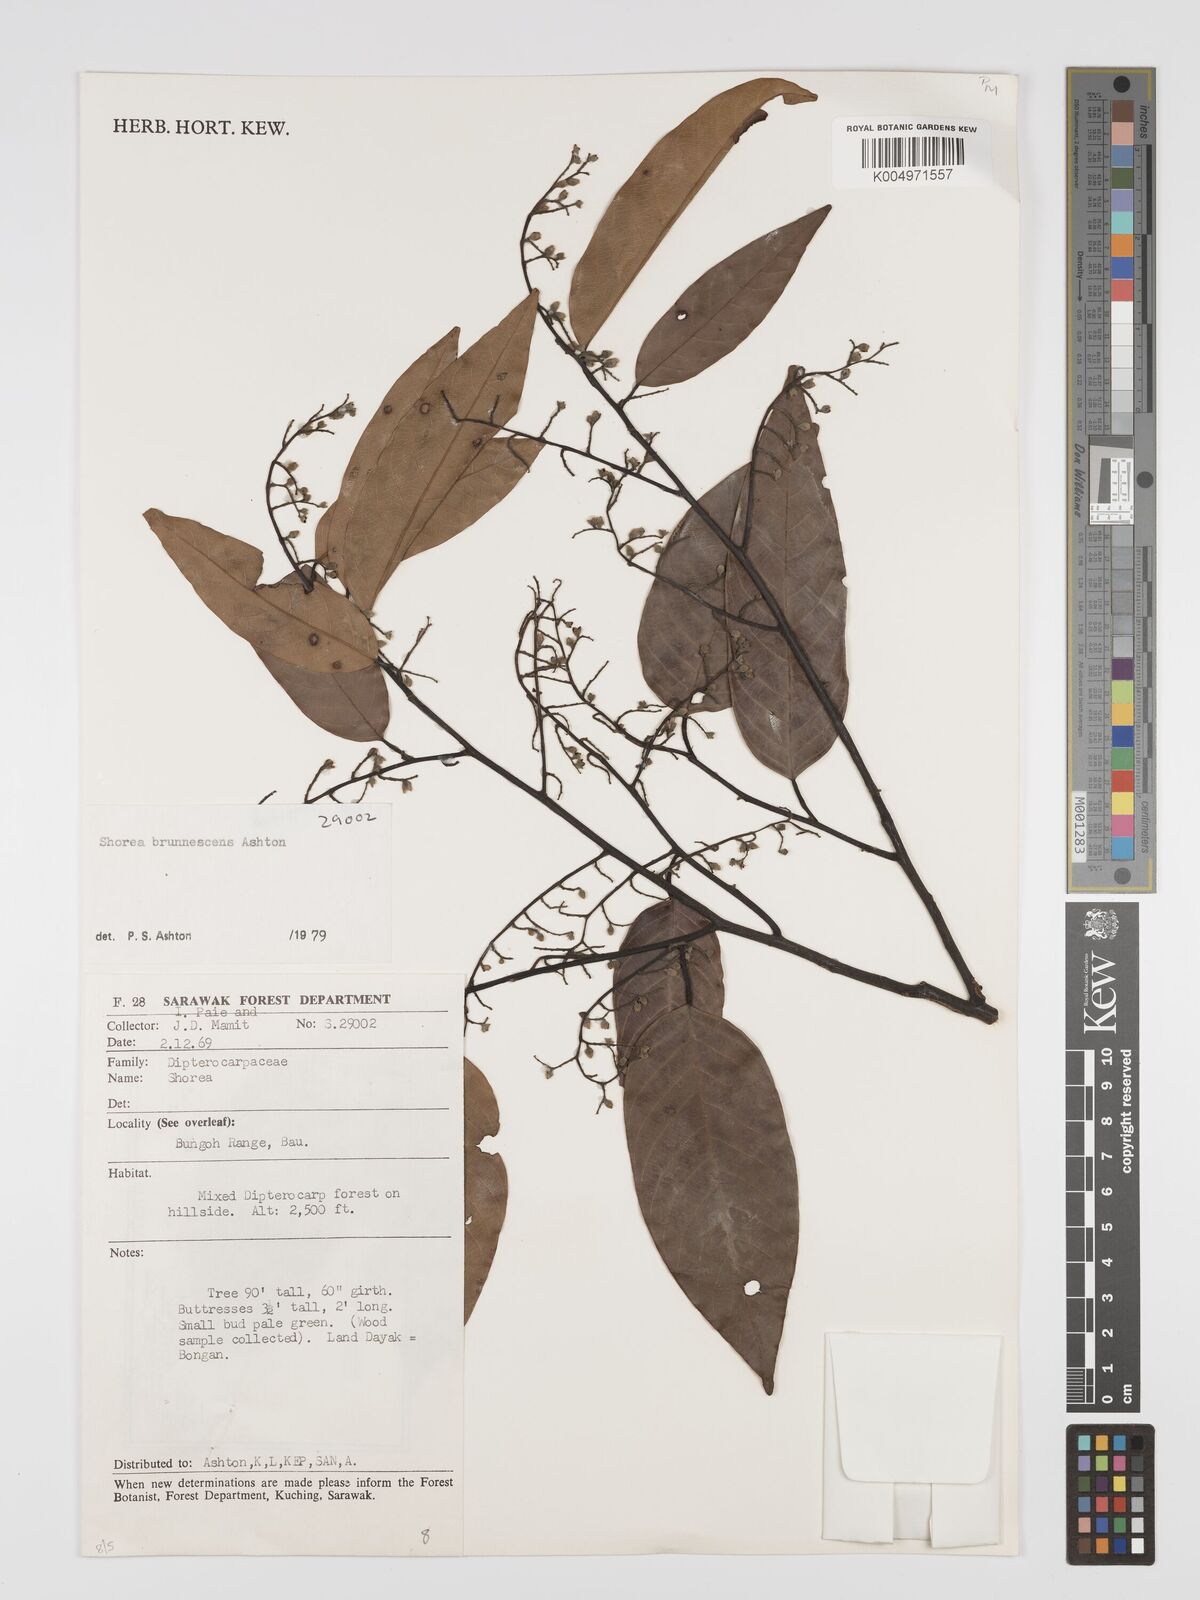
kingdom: Plantae
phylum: Tracheophyta
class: Magnoliopsida
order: Malvales
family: Dipterocarpaceae
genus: Shorea
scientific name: Shorea brunnescens
